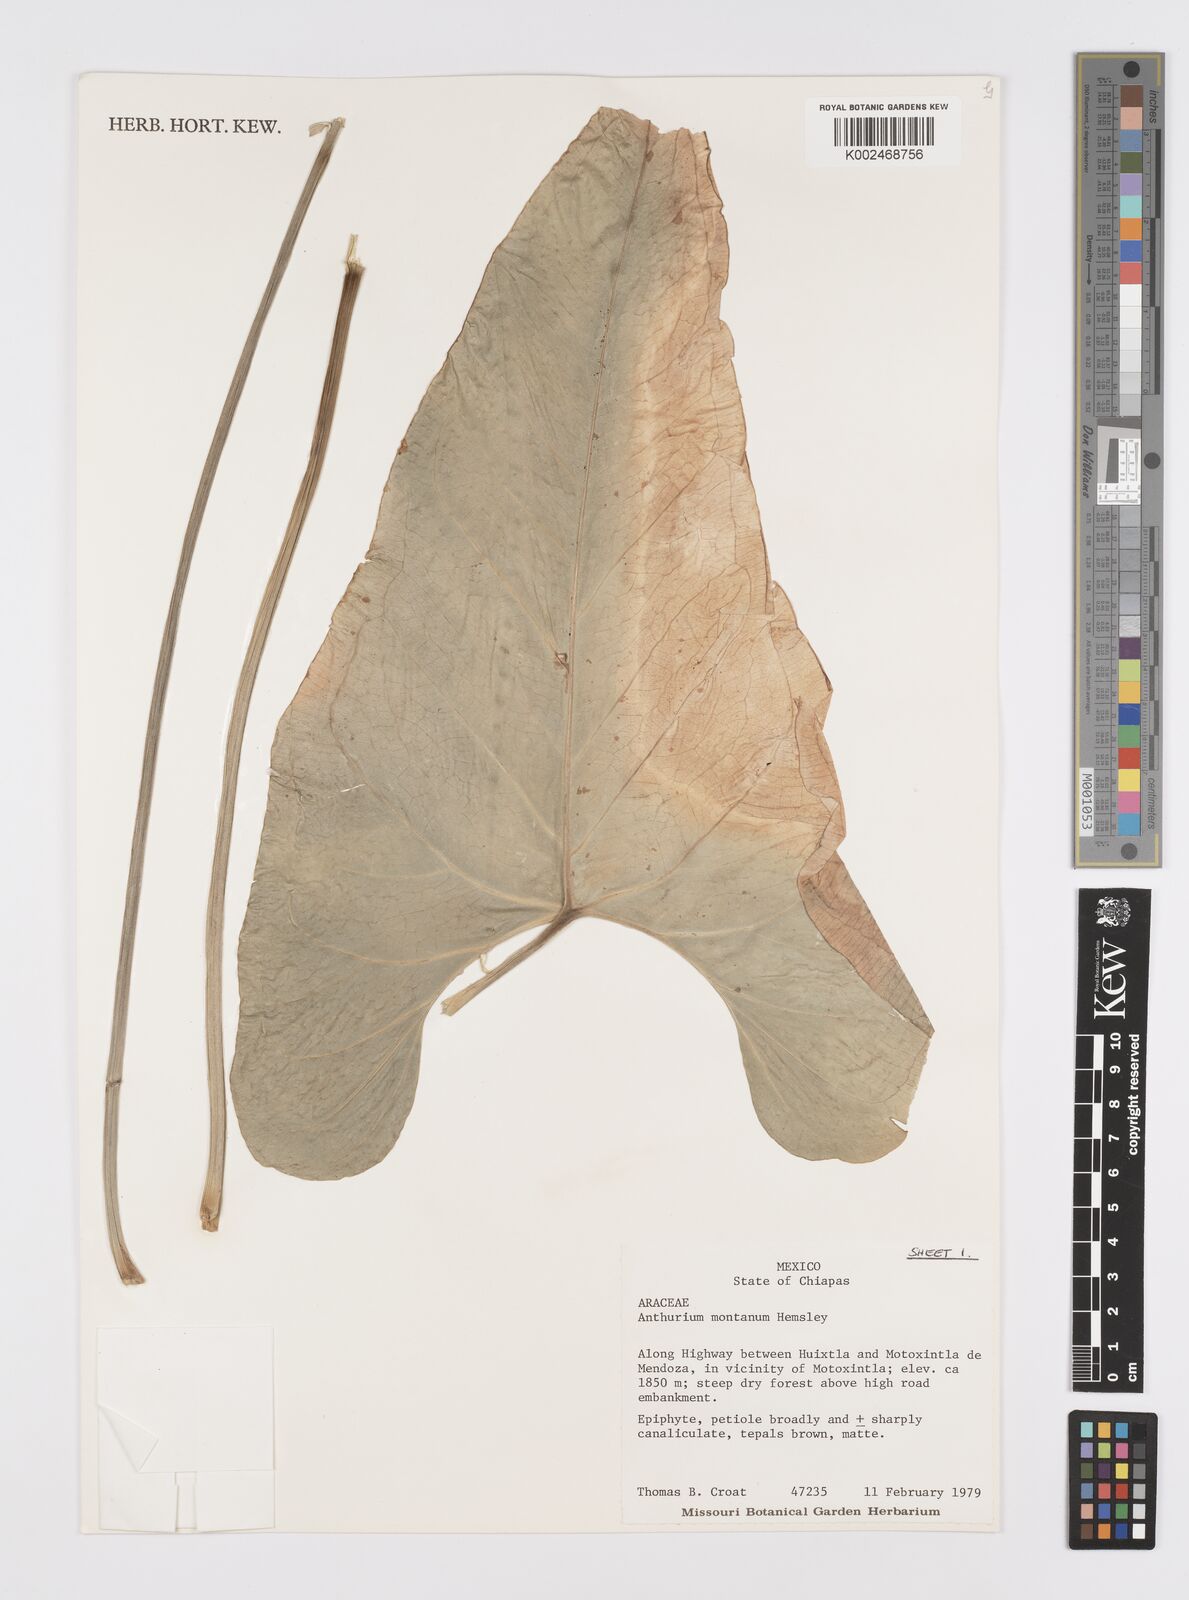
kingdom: Plantae
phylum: Tracheophyta
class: Liliopsida
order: Alismatales
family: Araceae
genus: Anthurium
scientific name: Anthurium montanum
